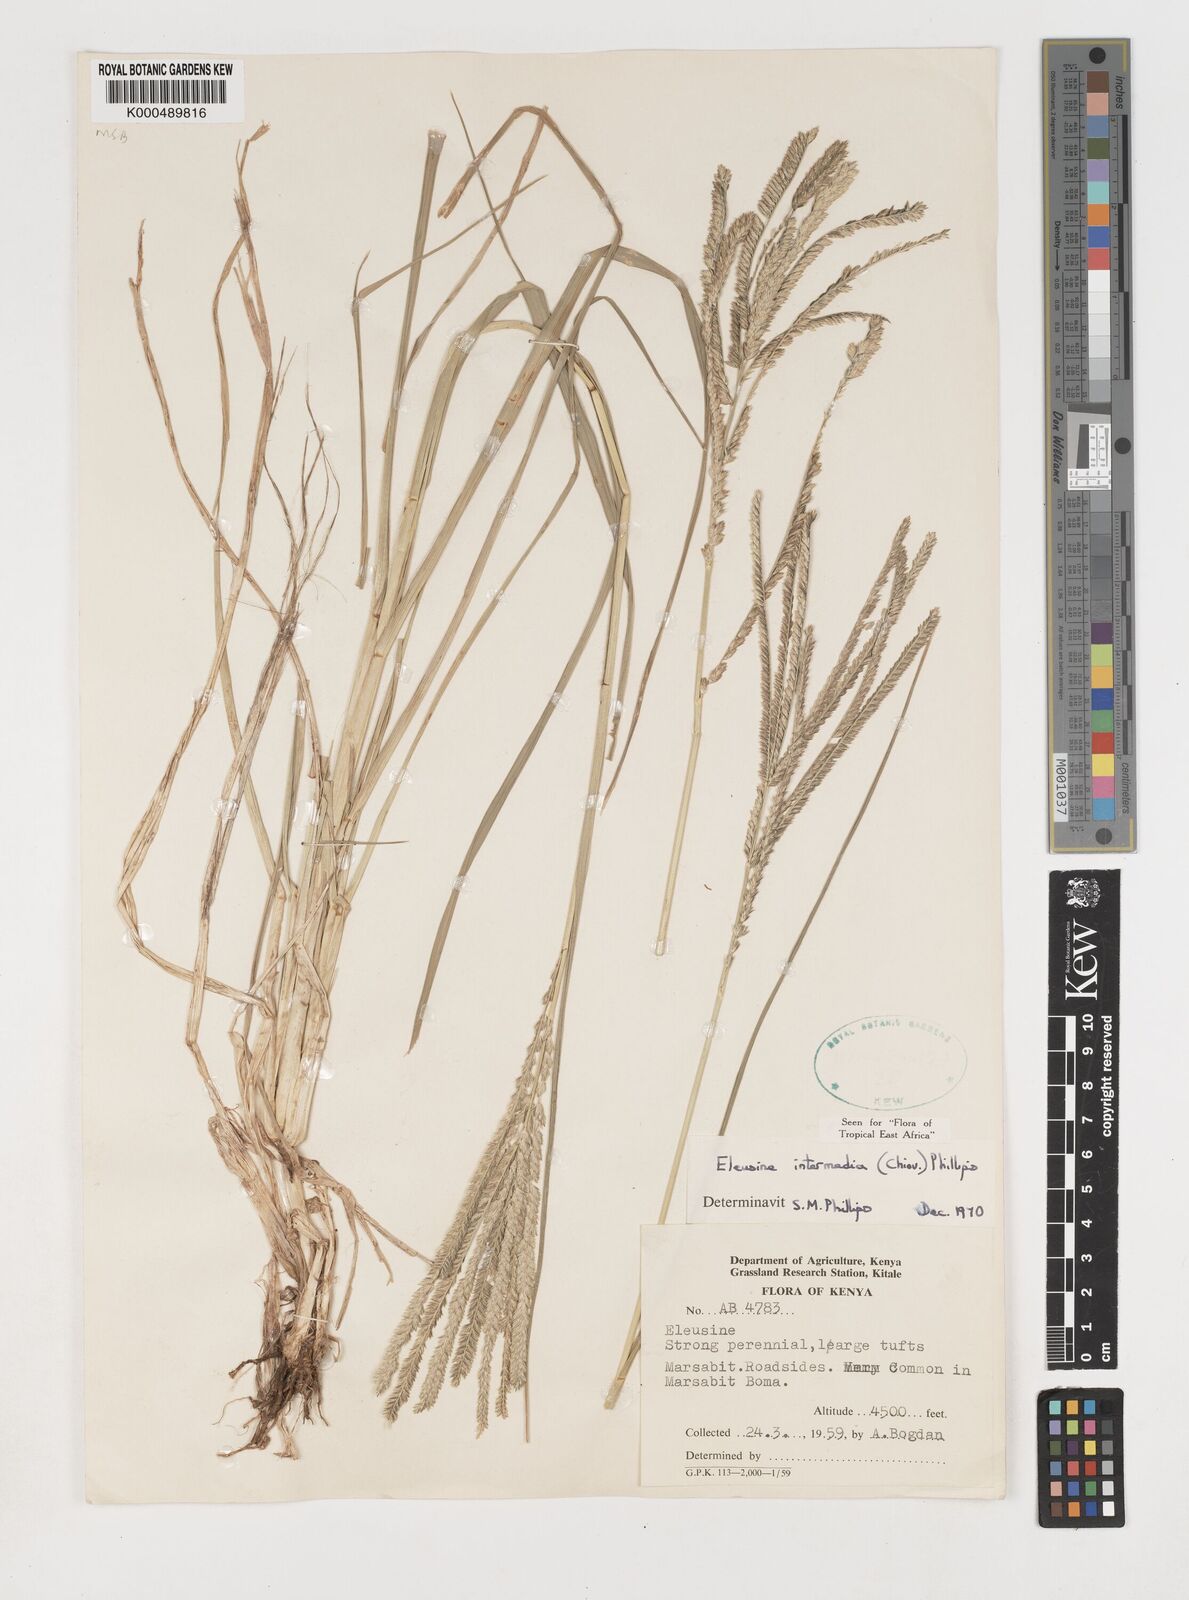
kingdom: Plantae
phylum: Tracheophyta
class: Liliopsida
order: Poales
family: Poaceae
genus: Eleusine
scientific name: Eleusine intermedia
